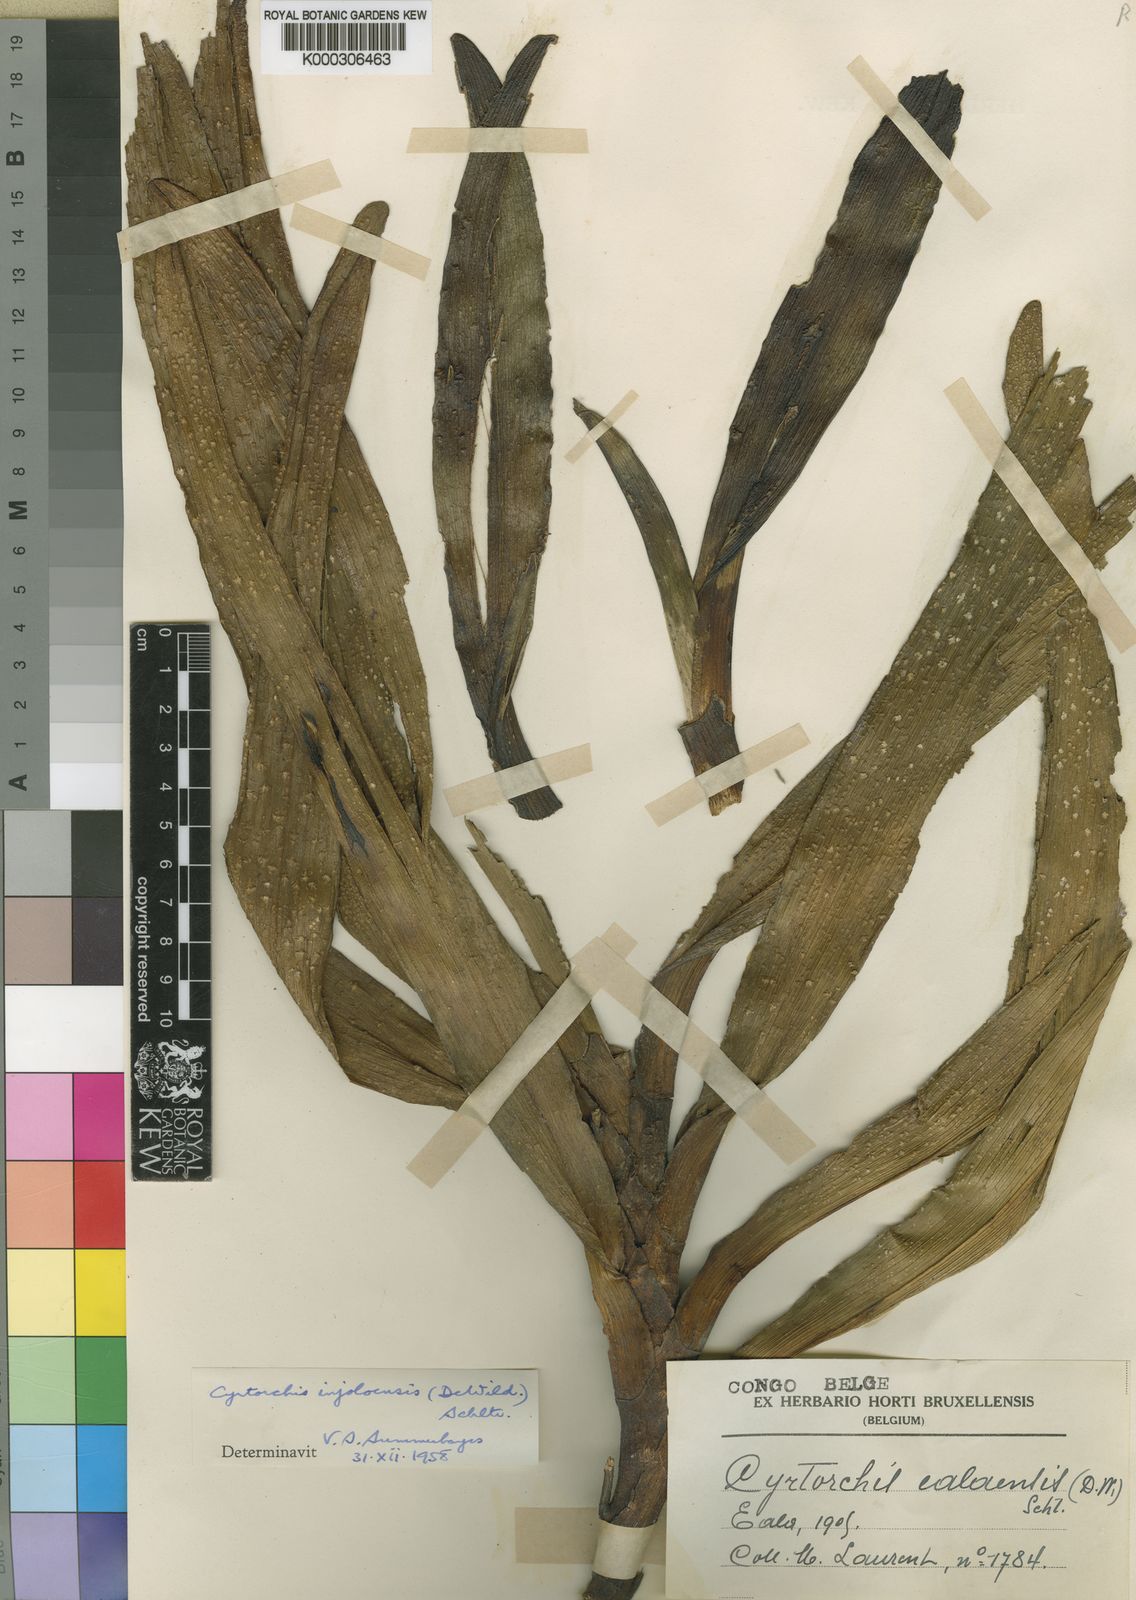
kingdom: Plantae
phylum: Tracheophyta
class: Liliopsida
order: Asparagales
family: Orchidaceae
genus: Cyrtorchis
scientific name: Cyrtorchis ringens
